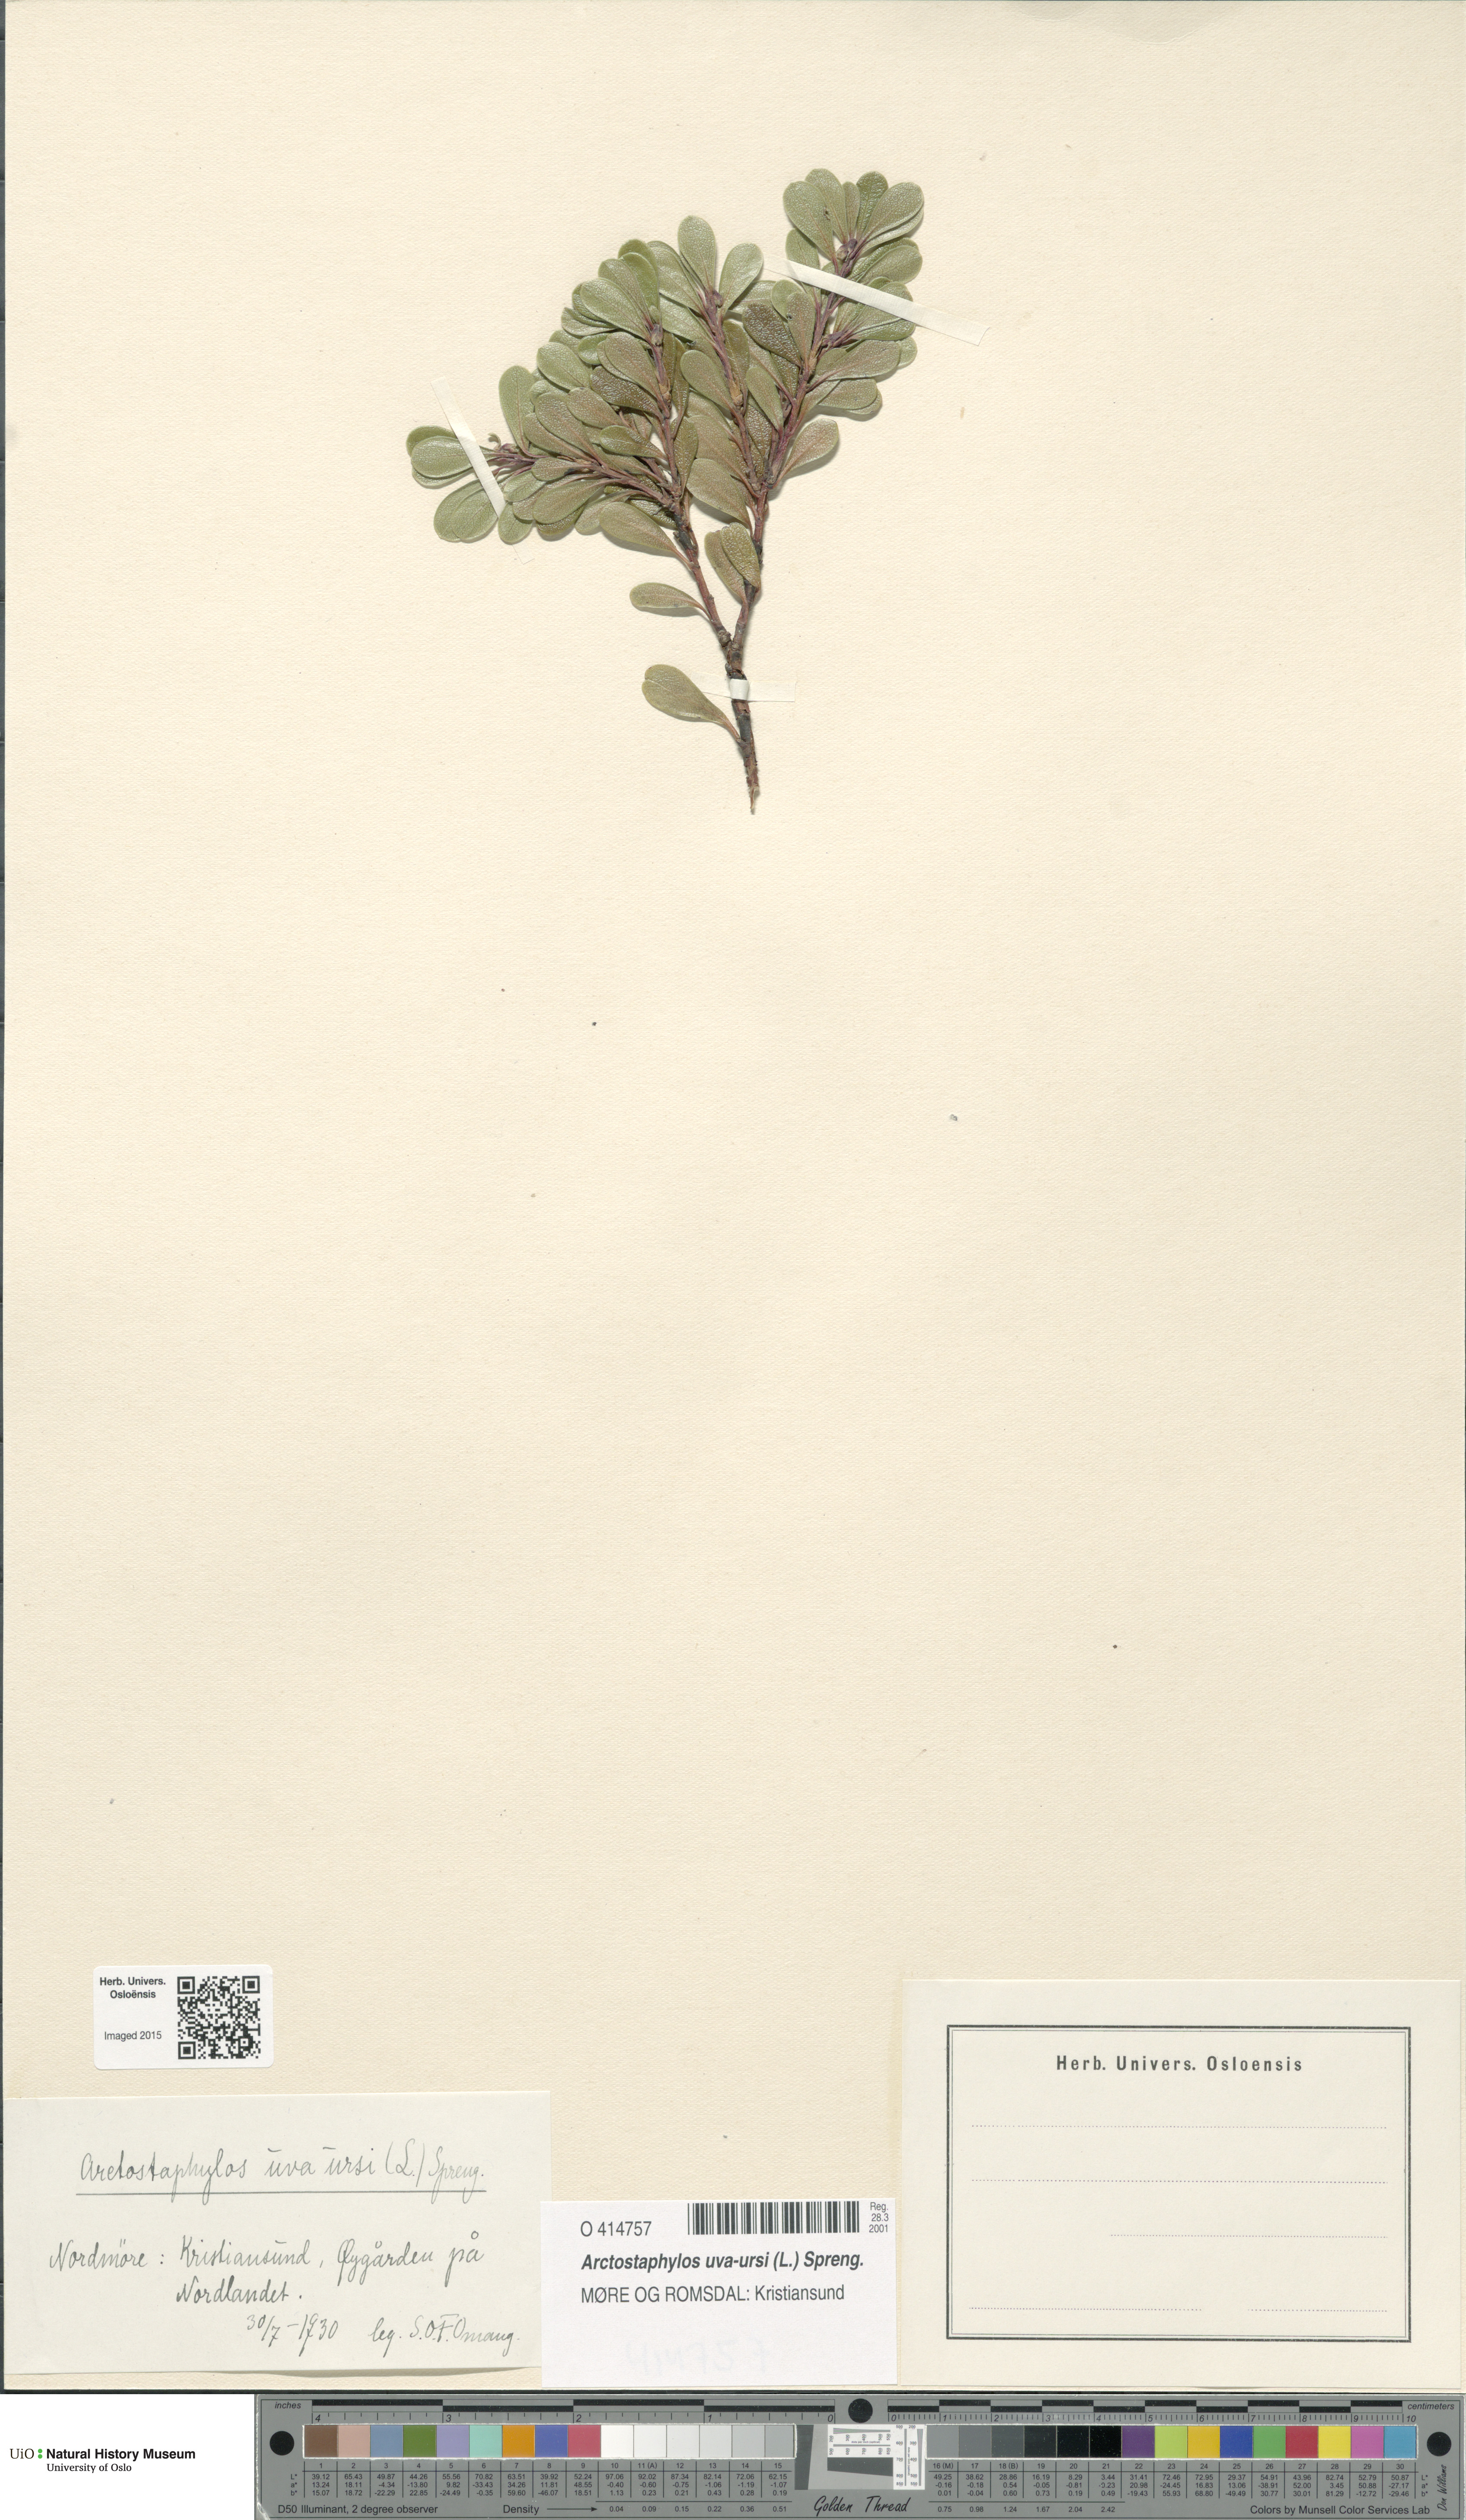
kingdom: Plantae
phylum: Tracheophyta
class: Magnoliopsida
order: Ericales
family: Ericaceae
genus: Arctostaphylos
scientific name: Arctostaphylos uva-ursi
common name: Bearberry
